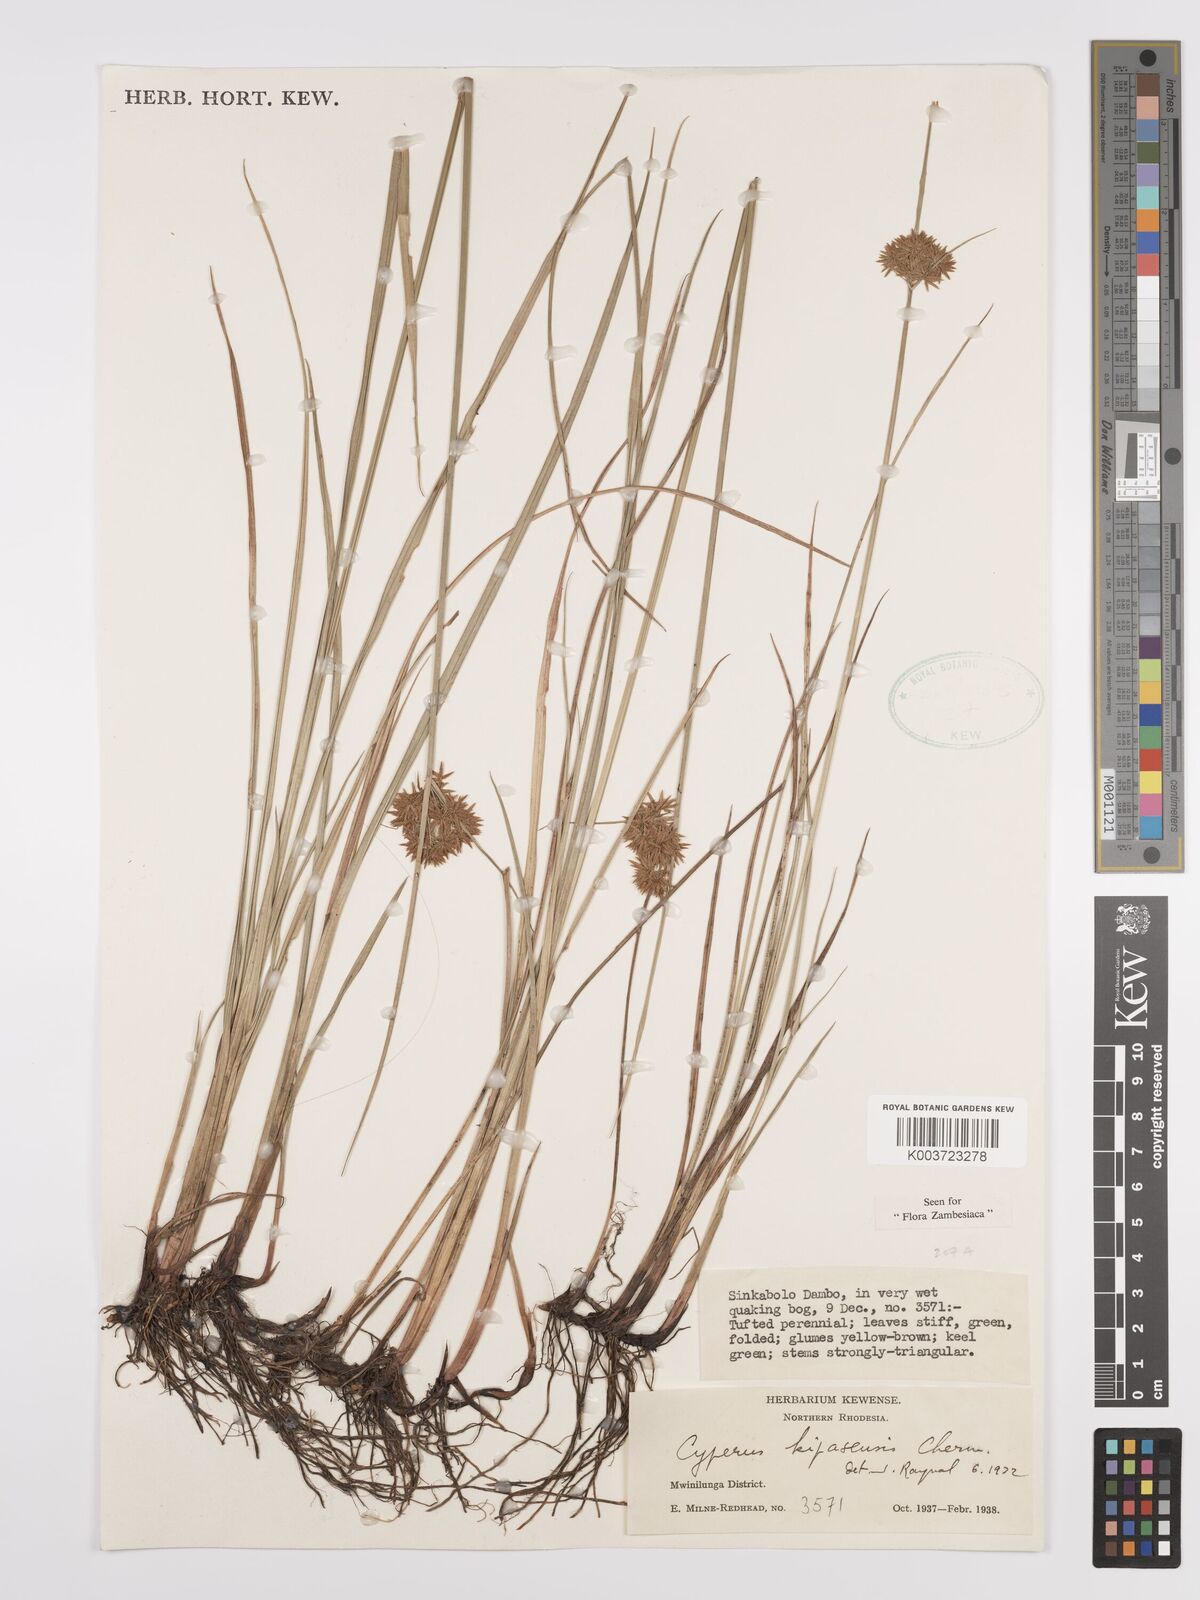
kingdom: Plantae
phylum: Tracheophyta
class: Liliopsida
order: Poales
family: Cyperaceae
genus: Cyperus
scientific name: Cyperus kipasensis
